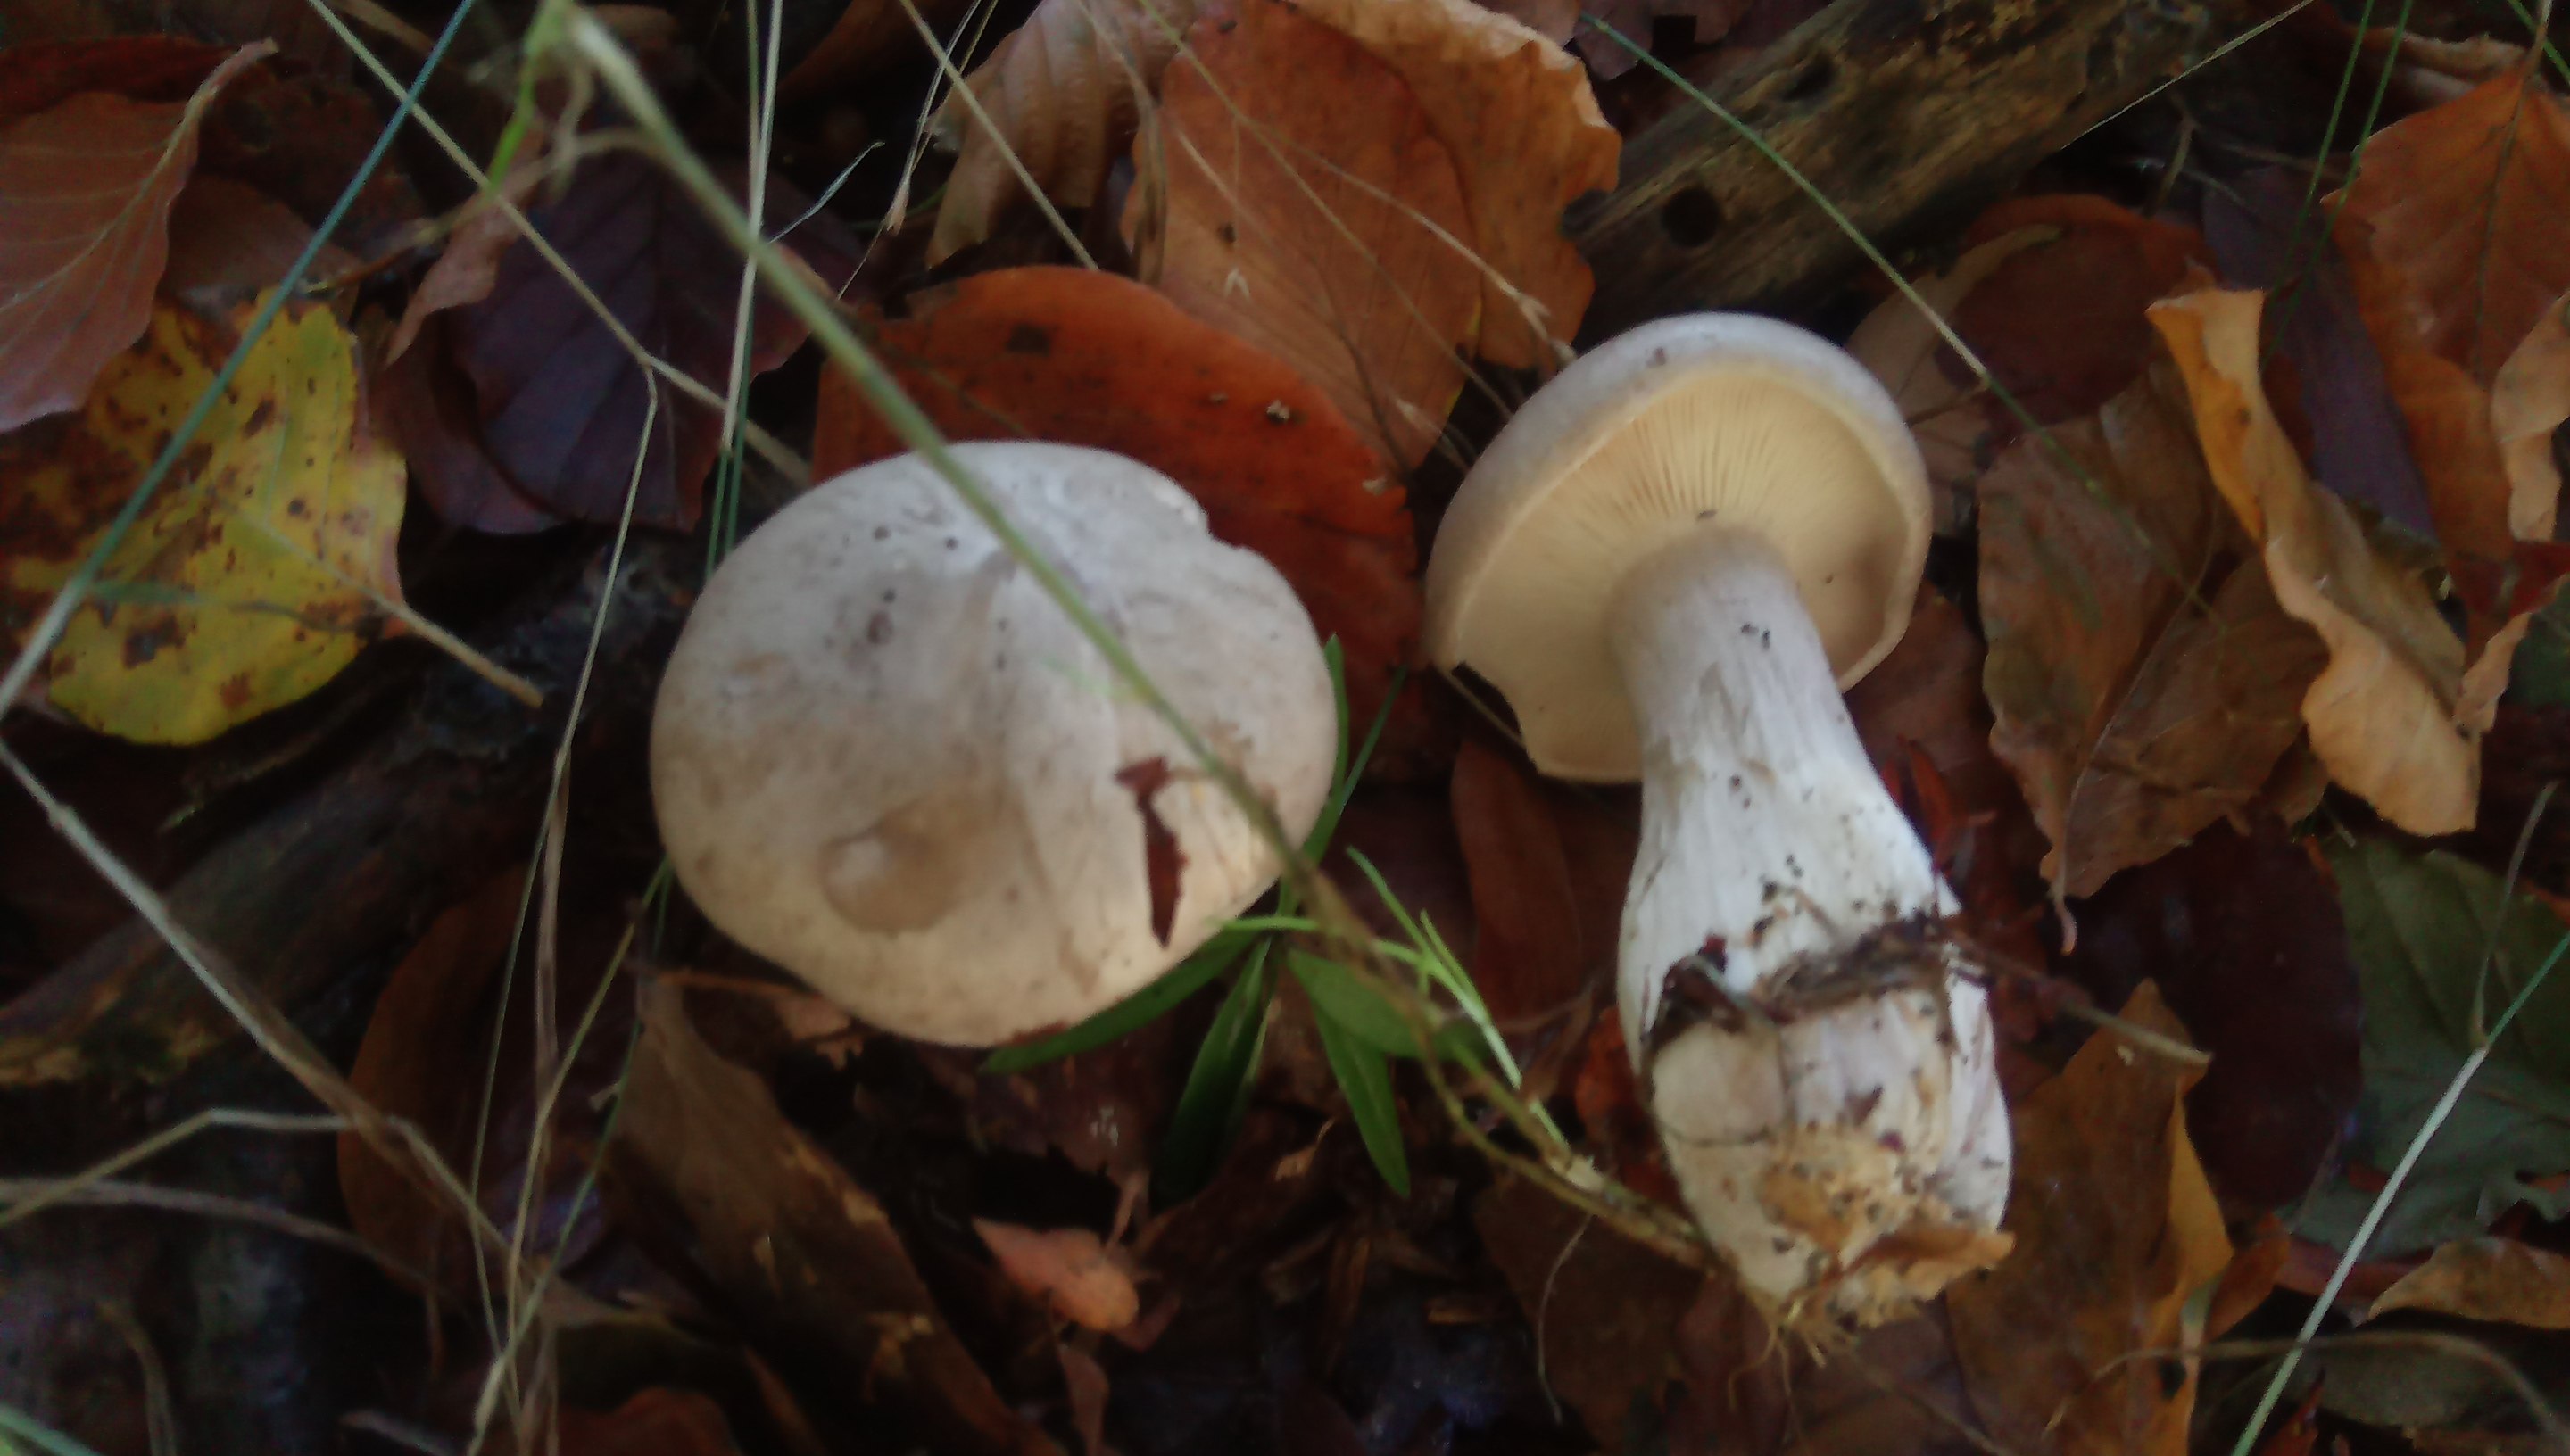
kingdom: Fungi
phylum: Basidiomycota
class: Agaricomycetes
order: Agaricales
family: Tricholomataceae
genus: Clitocybe
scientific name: Clitocybe nebularis
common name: tåge-tragthat
